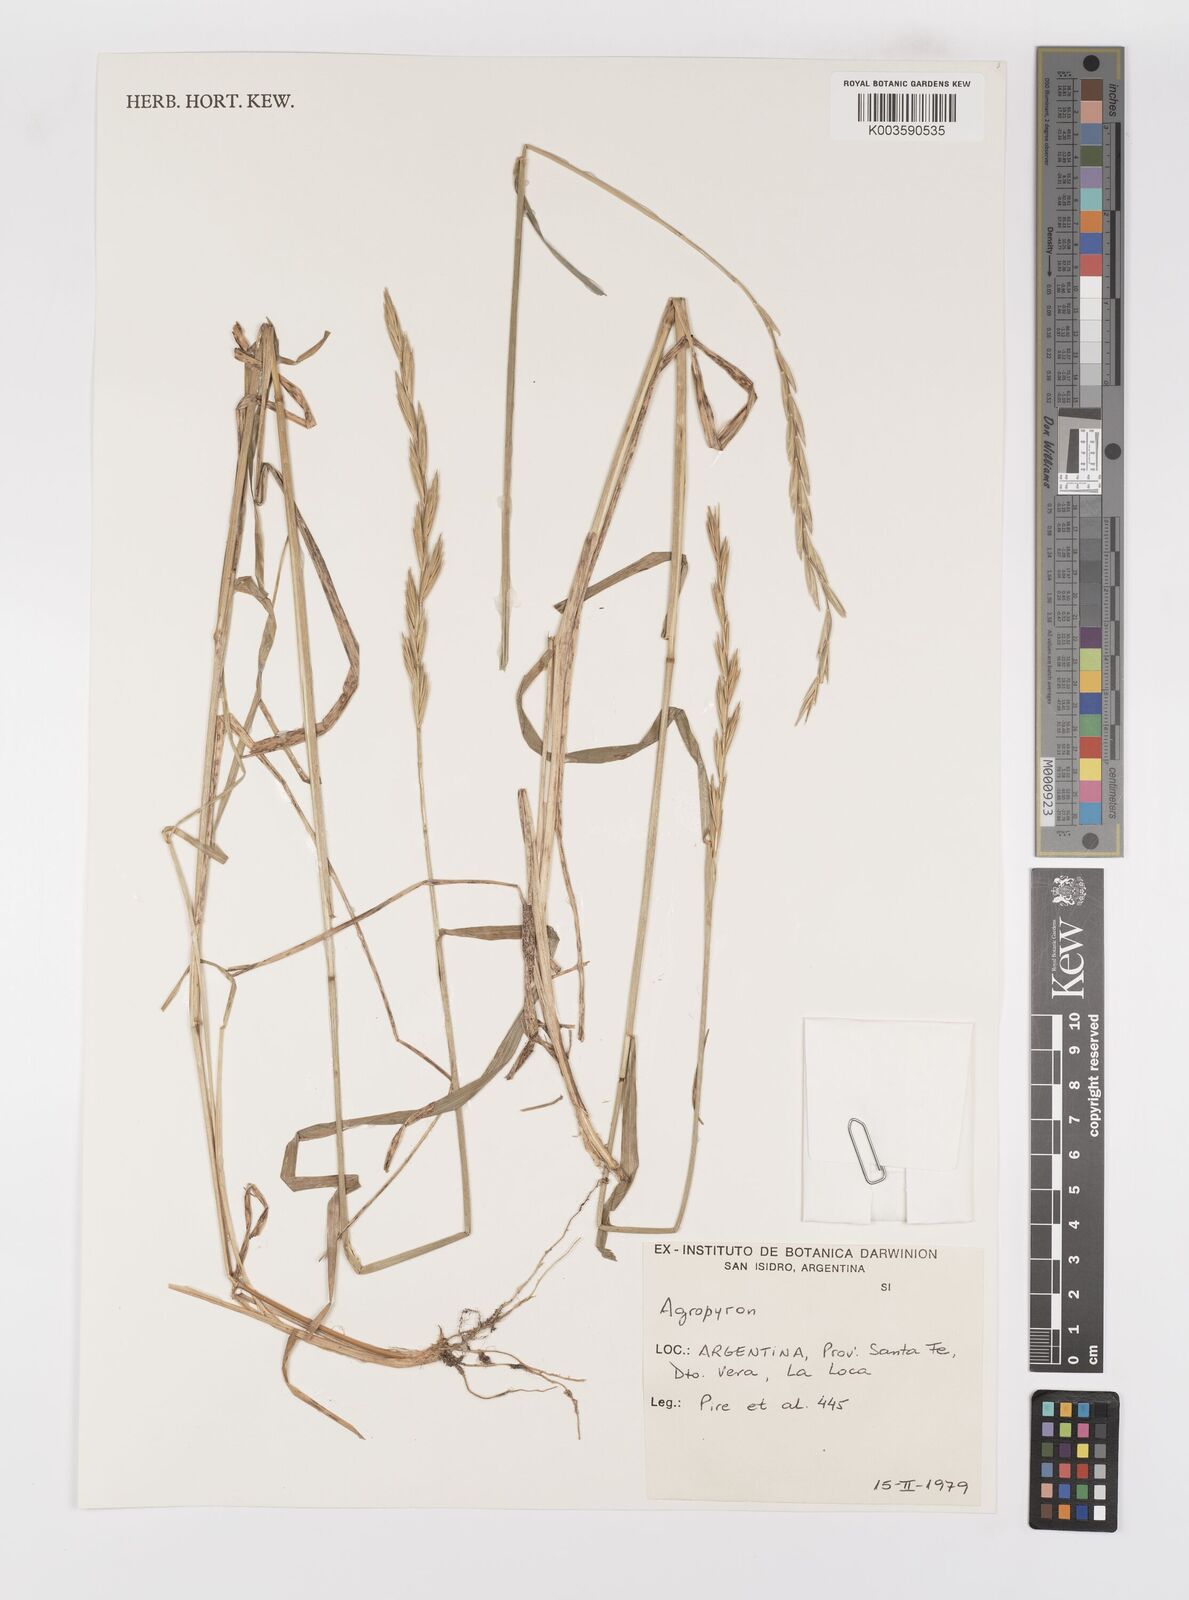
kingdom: Plantae
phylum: Tracheophyta
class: Liliopsida
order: Poales
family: Poaceae
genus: Elymus
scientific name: Elymus
